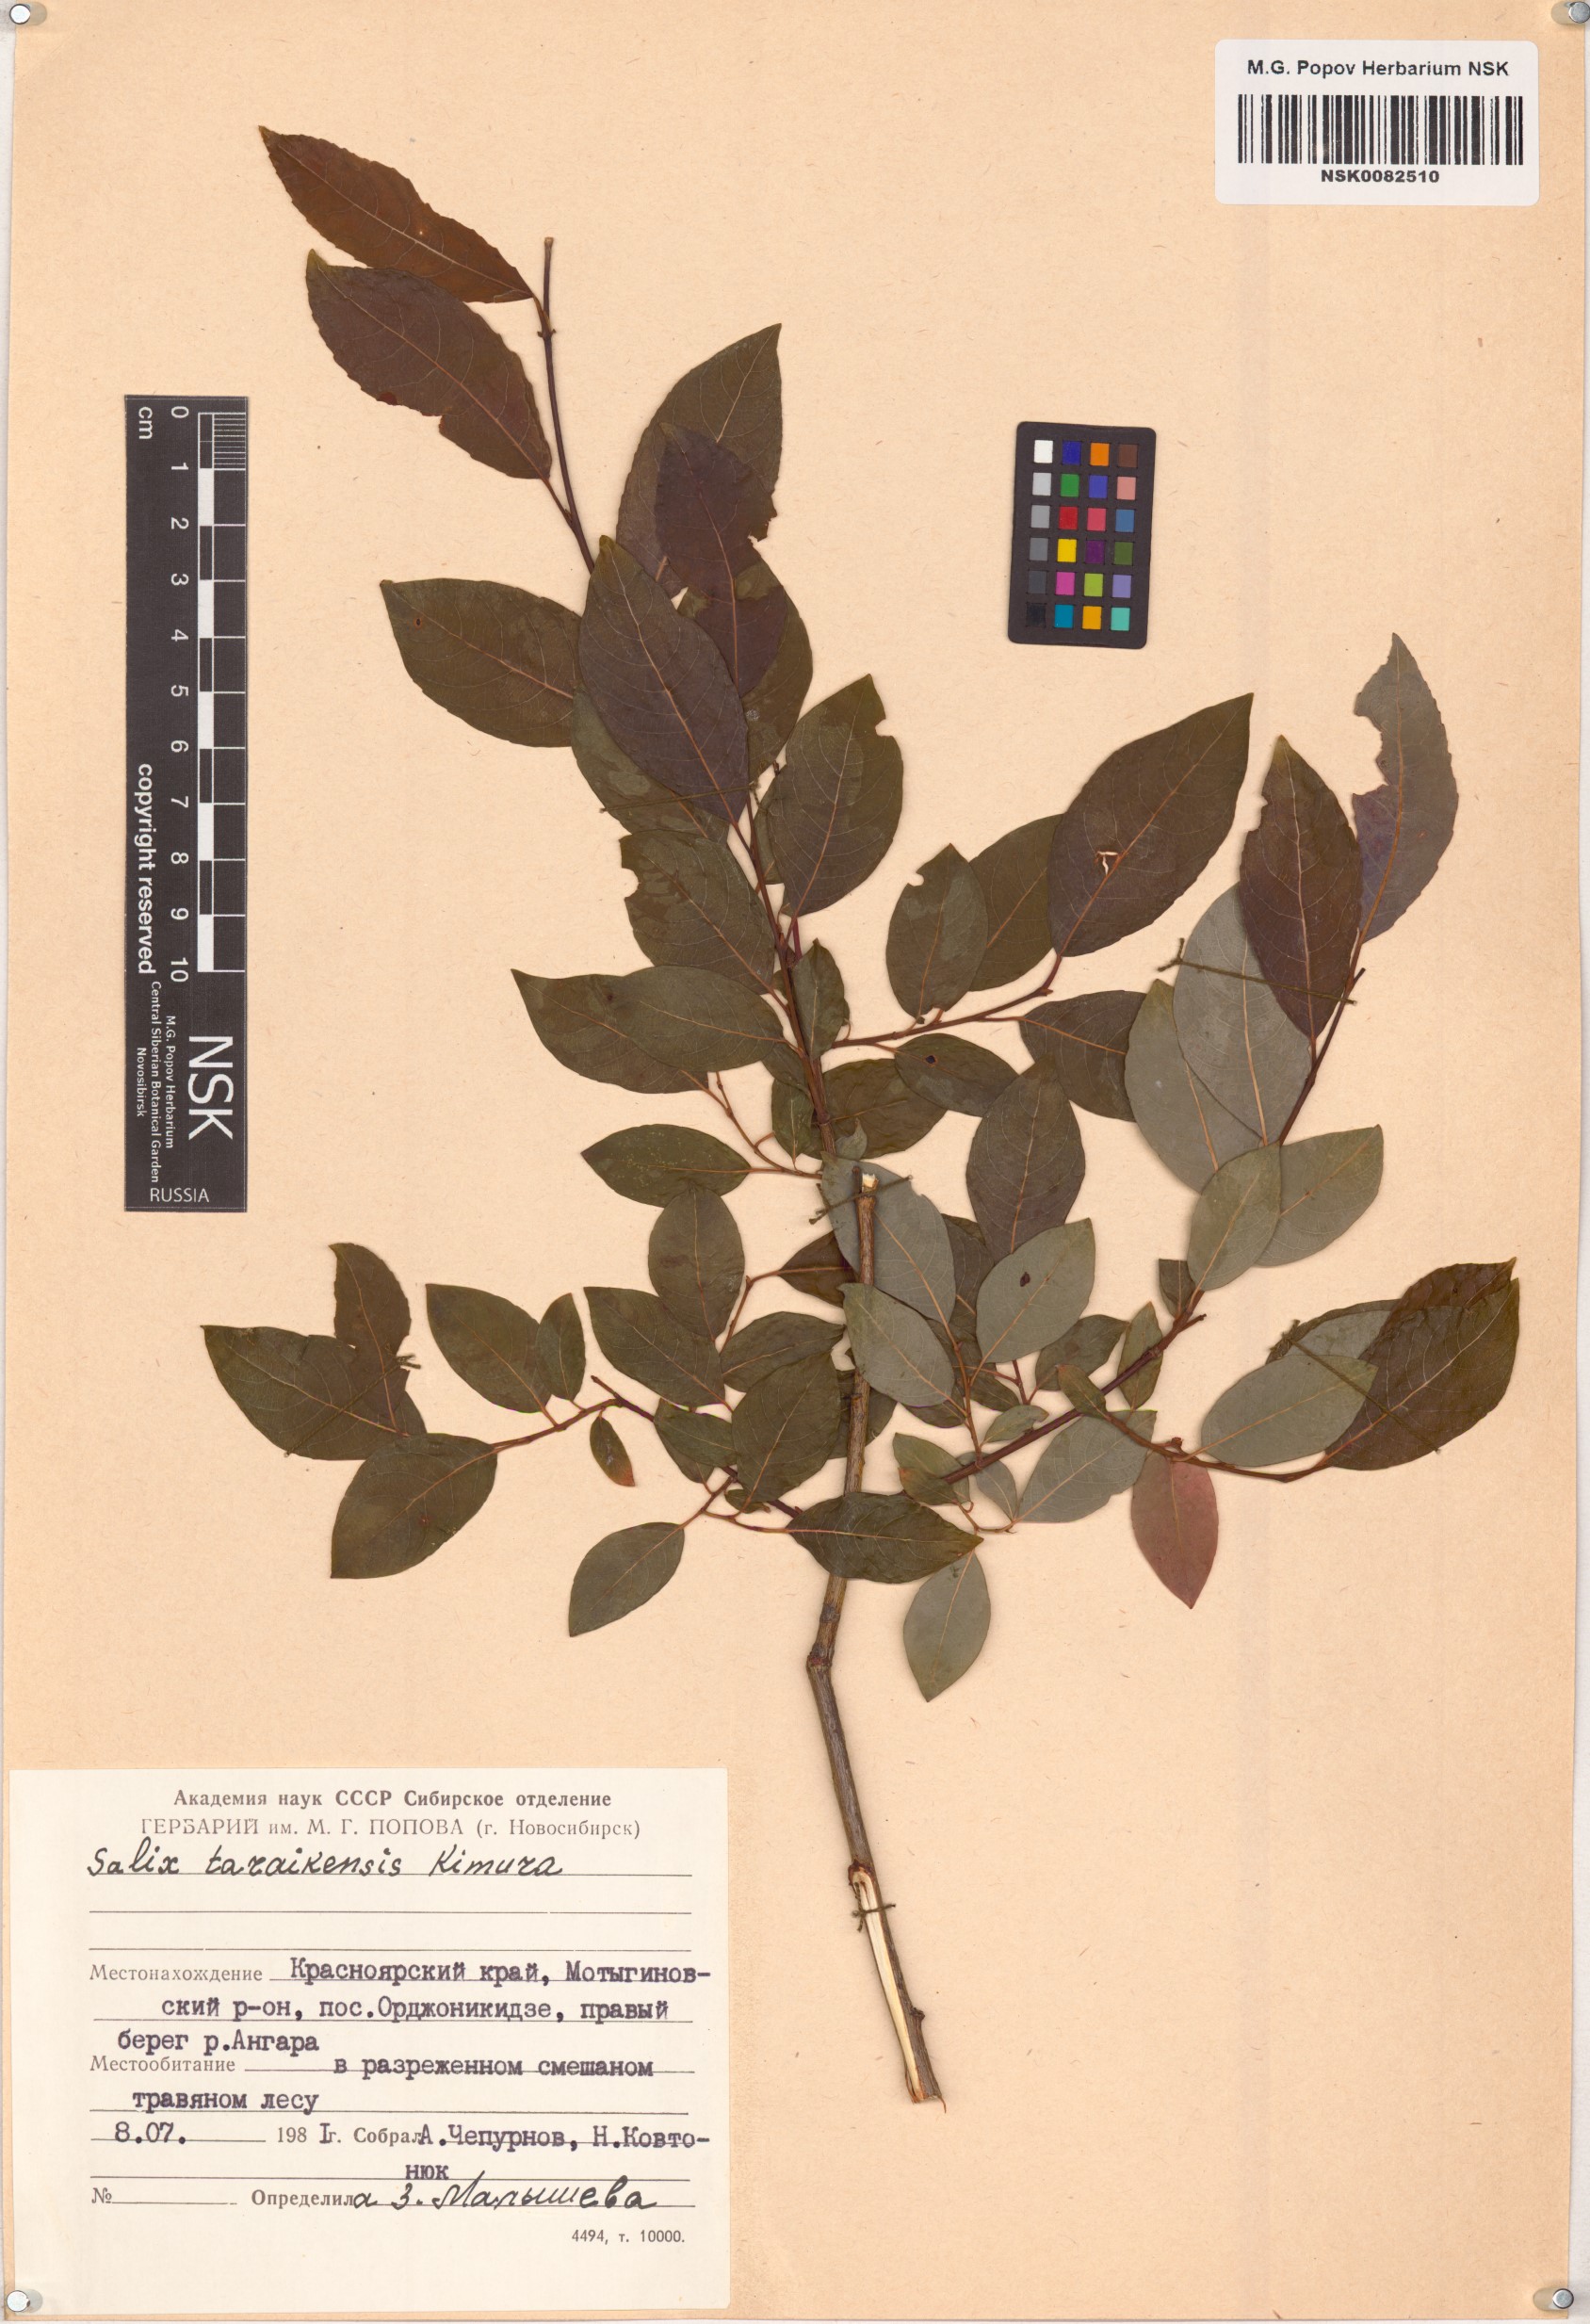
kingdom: Plantae
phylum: Tracheophyta
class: Magnoliopsida
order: Malpighiales
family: Salicaceae
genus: Salix
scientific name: Salix taraikensis
